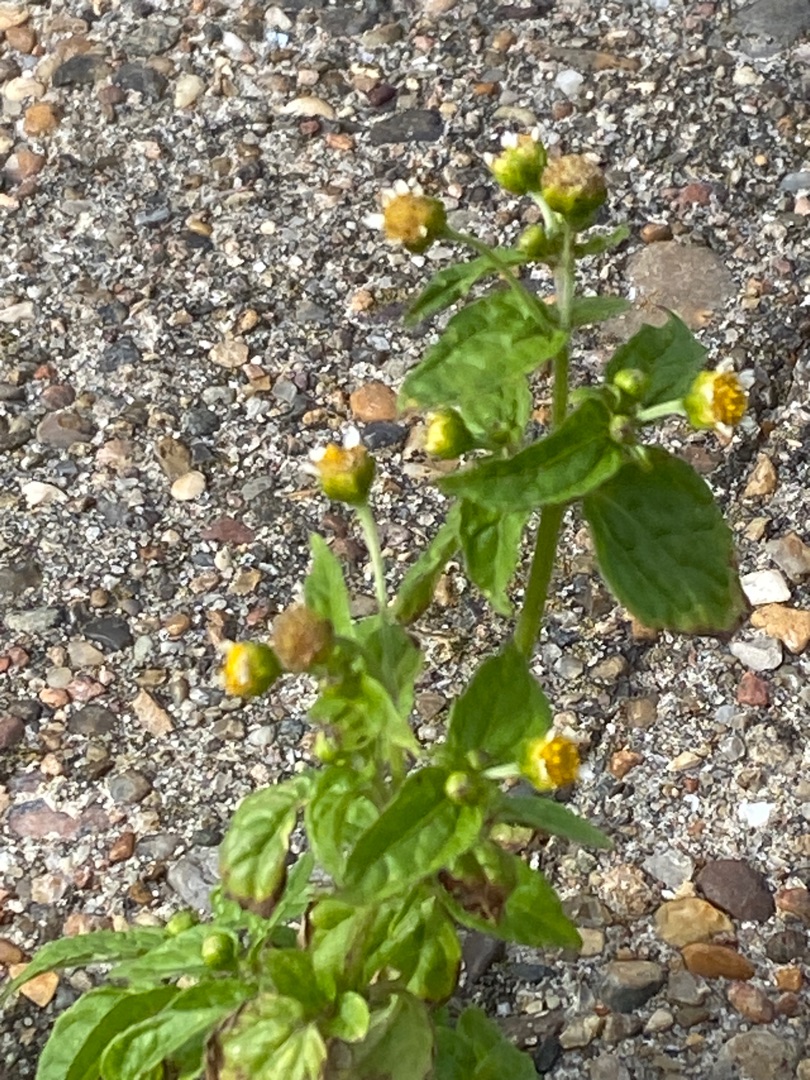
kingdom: Plantae
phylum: Tracheophyta
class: Magnoliopsida
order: Asterales
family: Asteraceae
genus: Galinsoga
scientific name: Galinsoga parviflora
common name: Håret kortstråle
